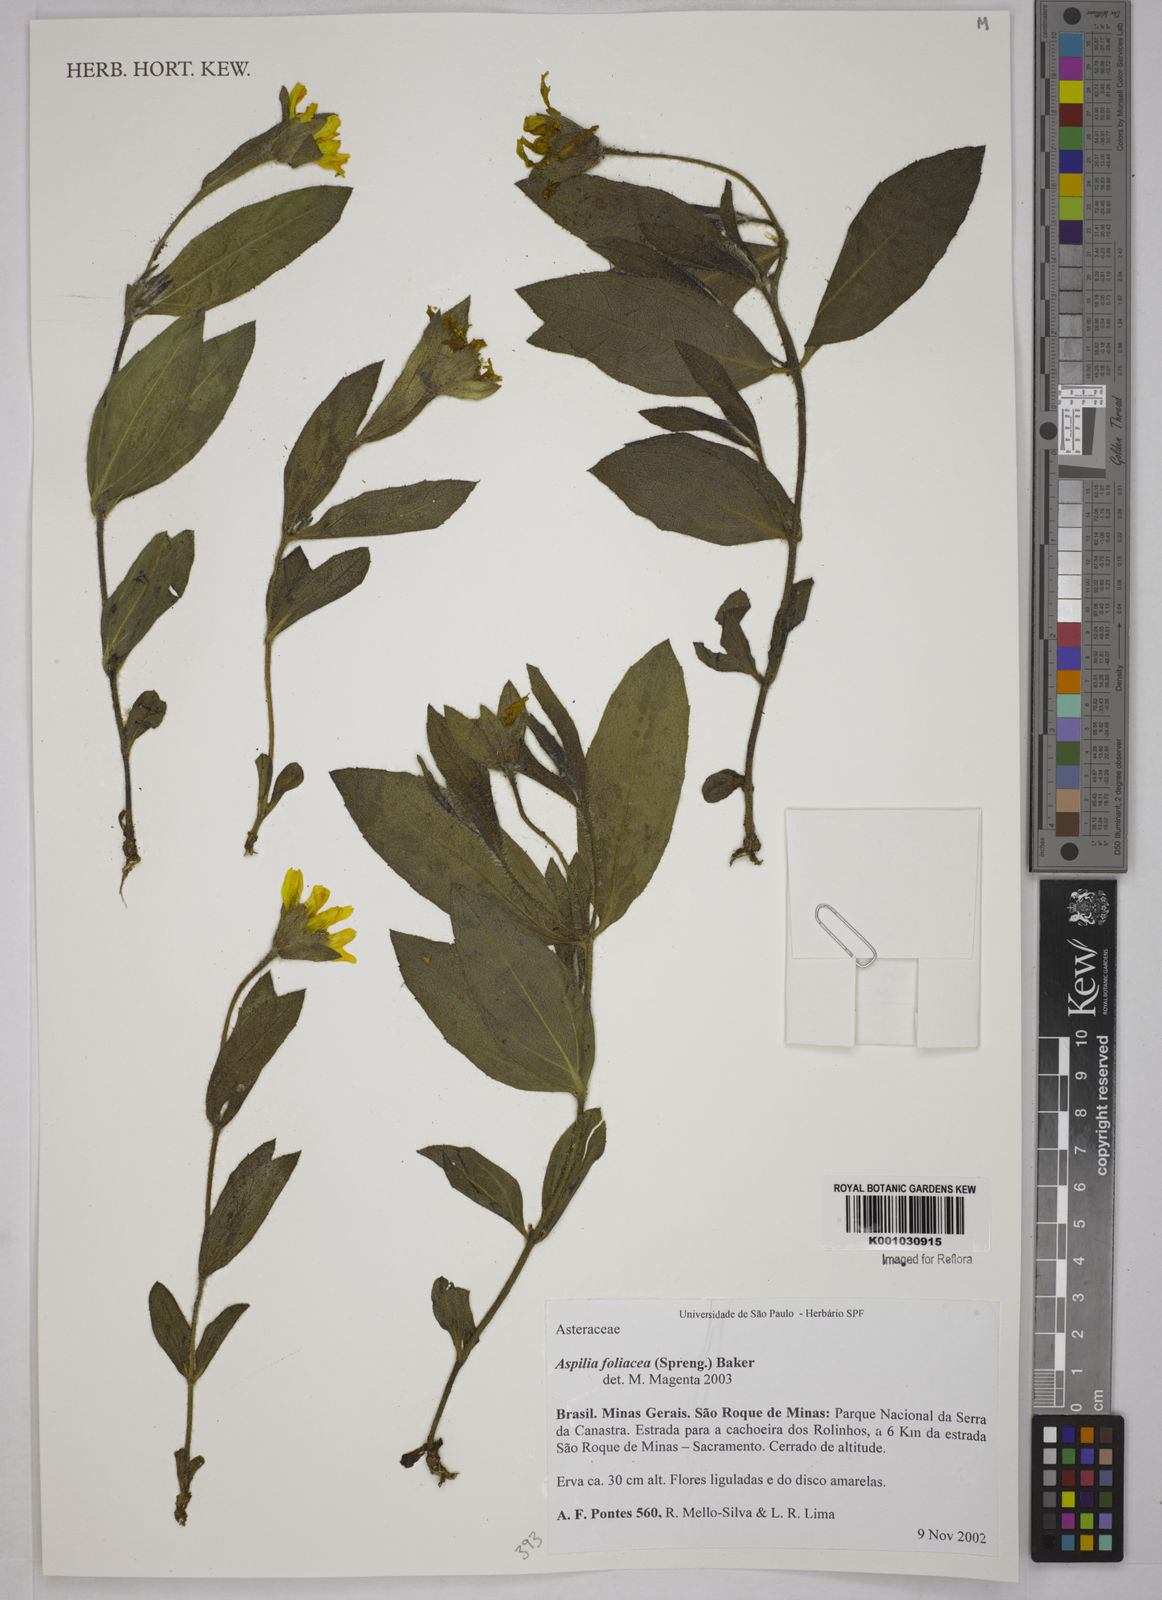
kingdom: Plantae
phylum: Tracheophyta
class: Magnoliopsida
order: Asterales
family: Asteraceae
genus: Wedelia
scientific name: Wedelia foliacea
